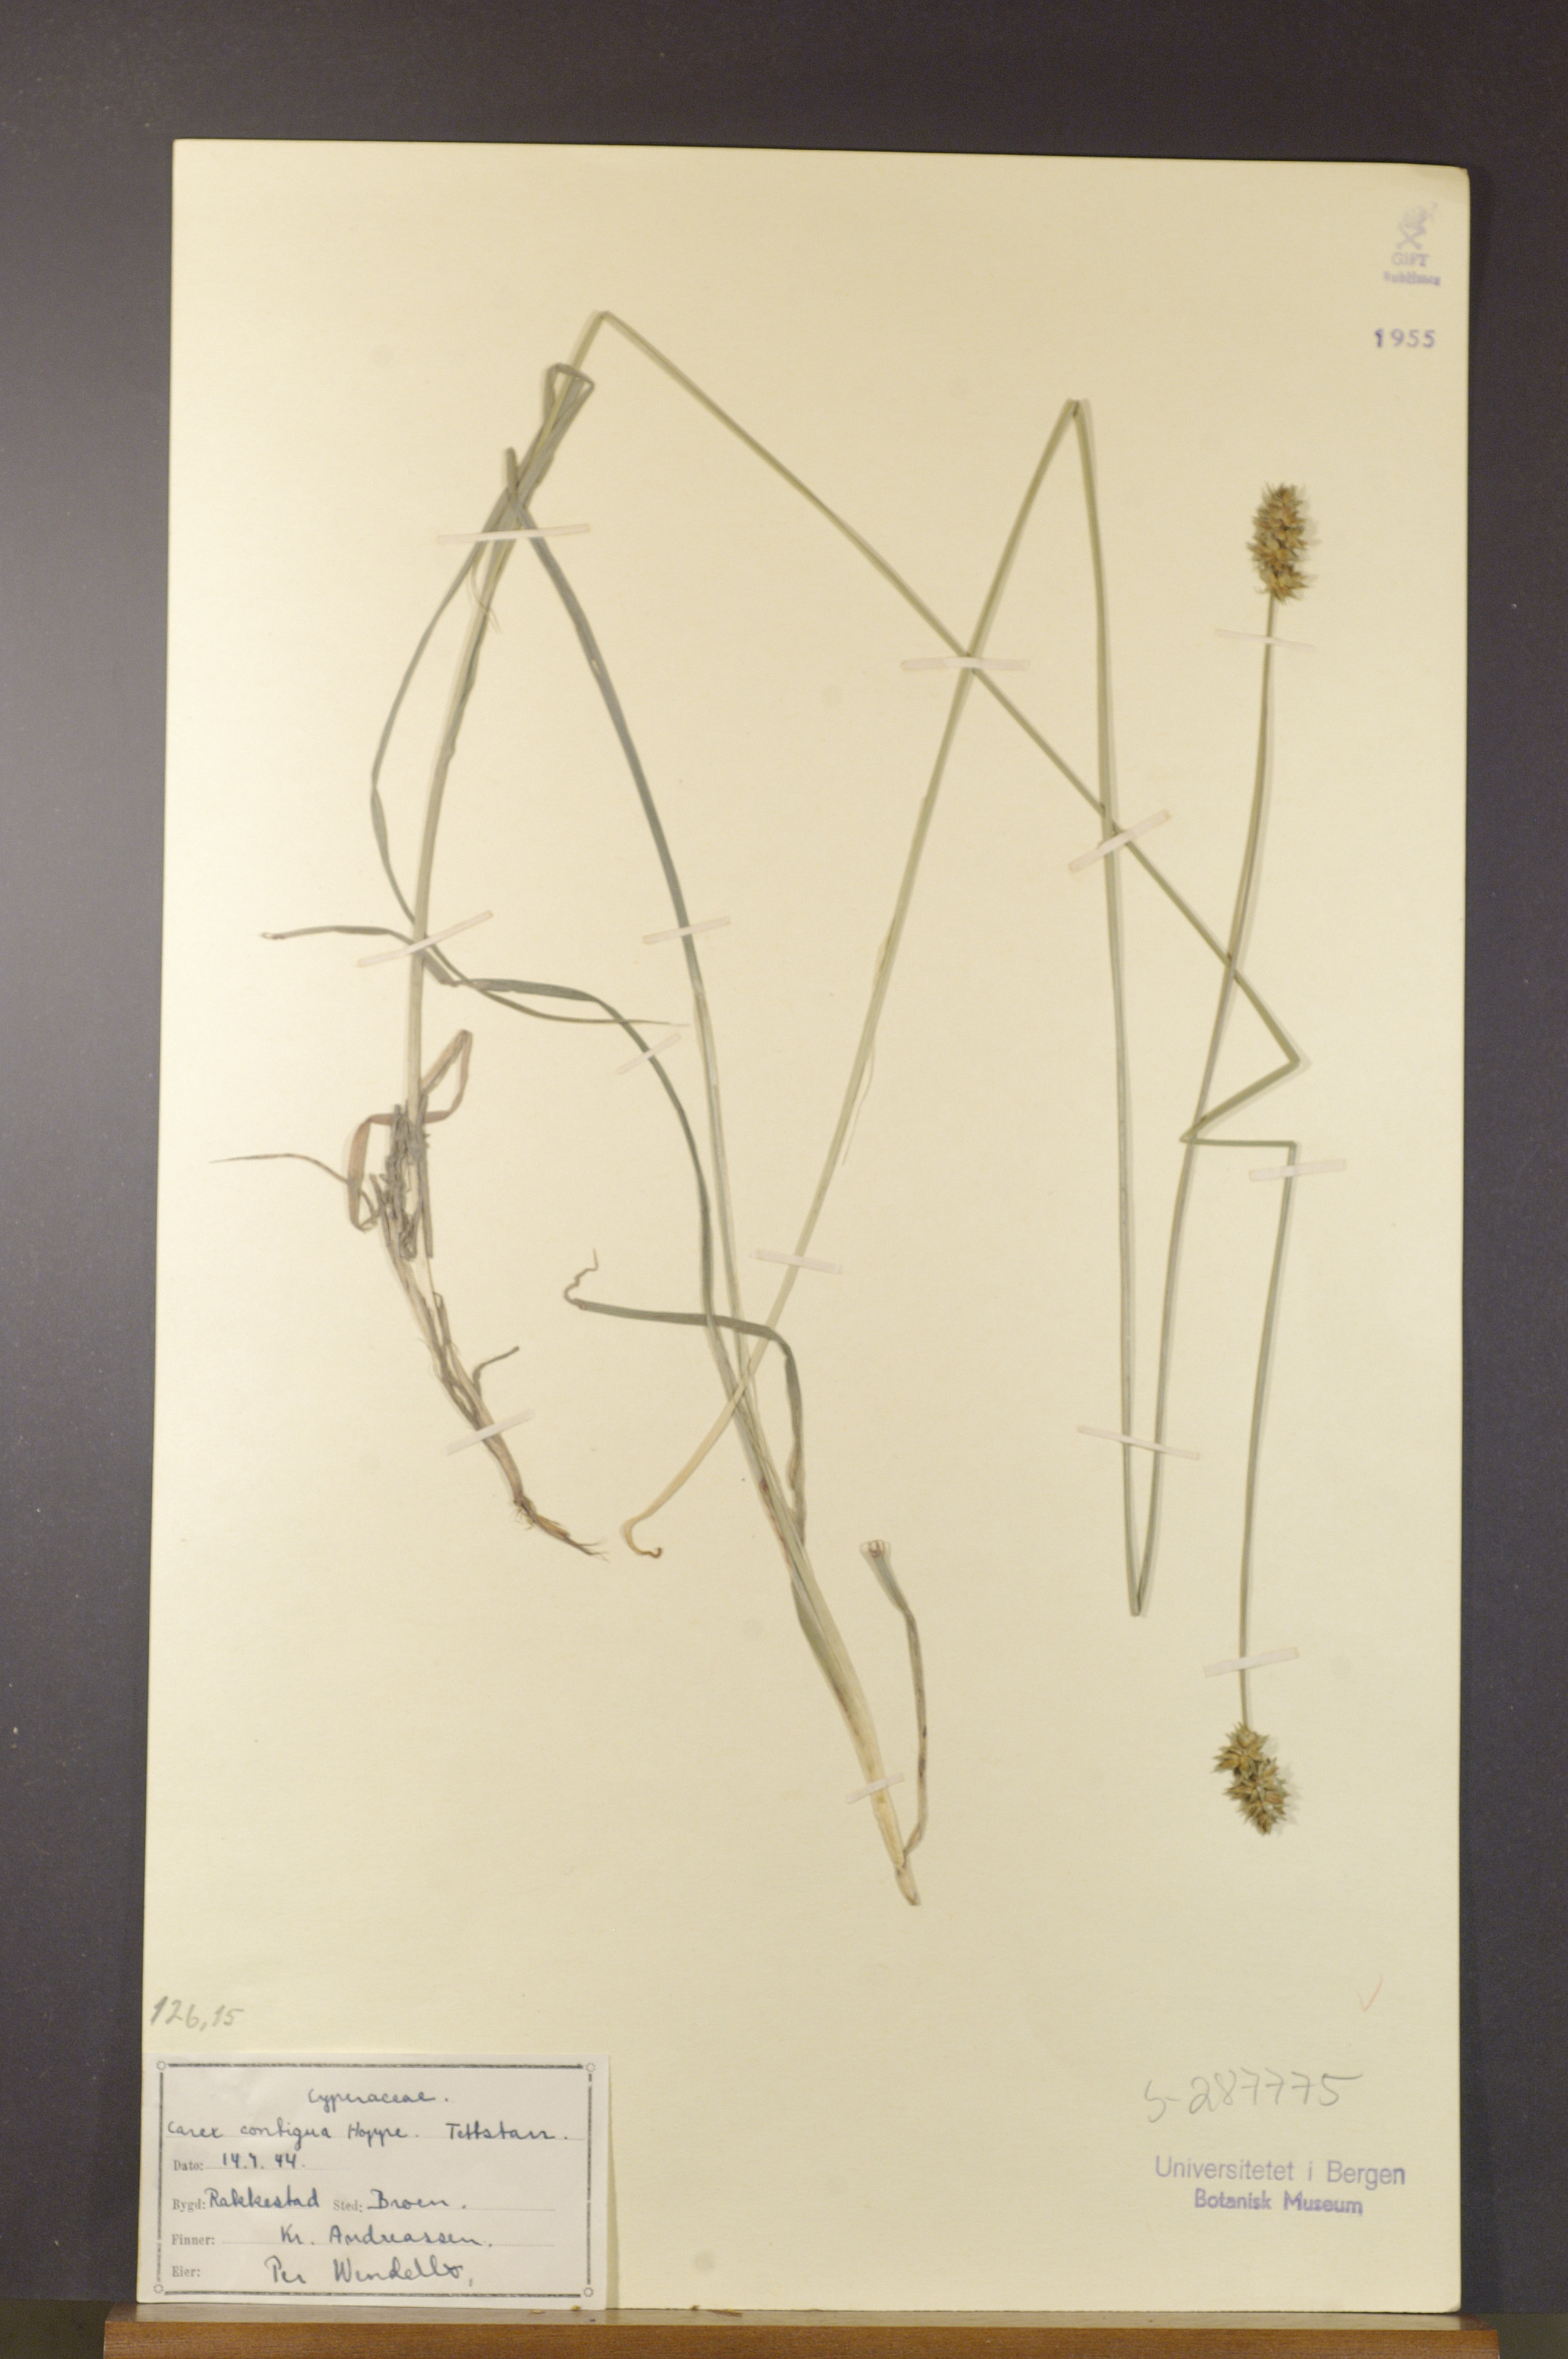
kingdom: Plantae
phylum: Tracheophyta
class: Liliopsida
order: Poales
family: Cyperaceae
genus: Carex
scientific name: Carex spicata
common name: Spiked sedge
